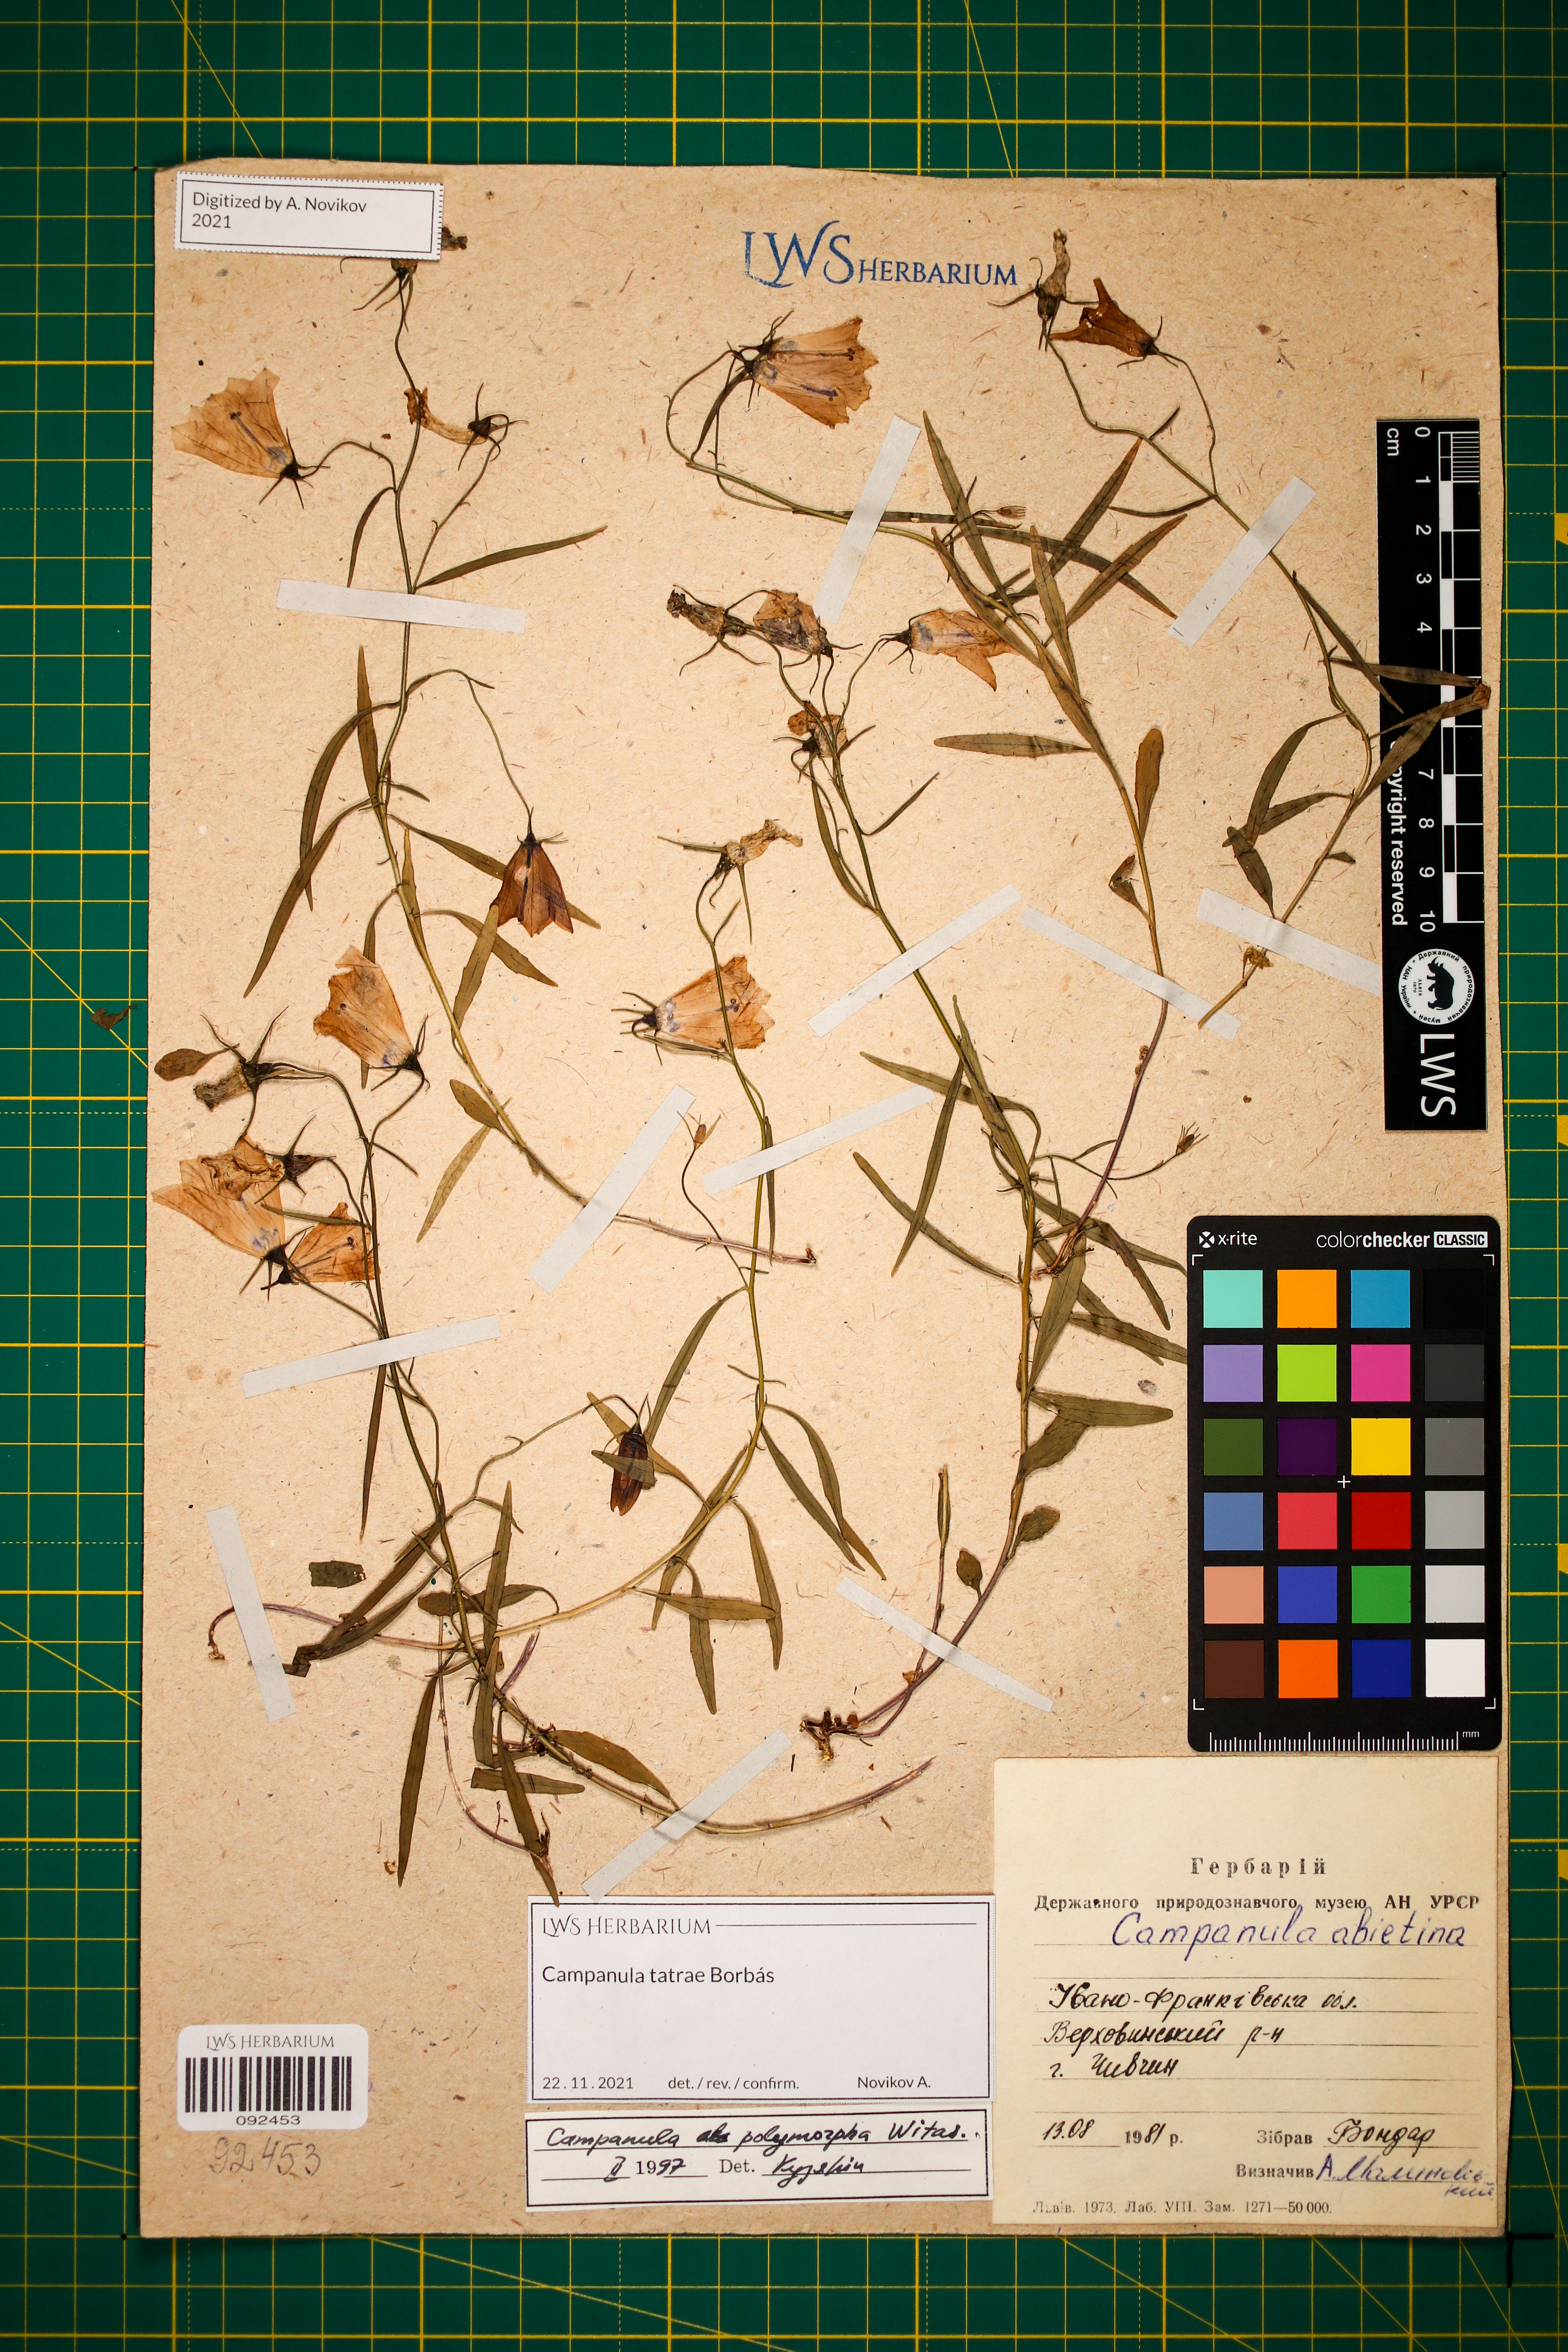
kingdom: Plantae
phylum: Tracheophyta
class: Magnoliopsida
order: Asterales
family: Campanulaceae
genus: Campanula
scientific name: Campanula tatrae
